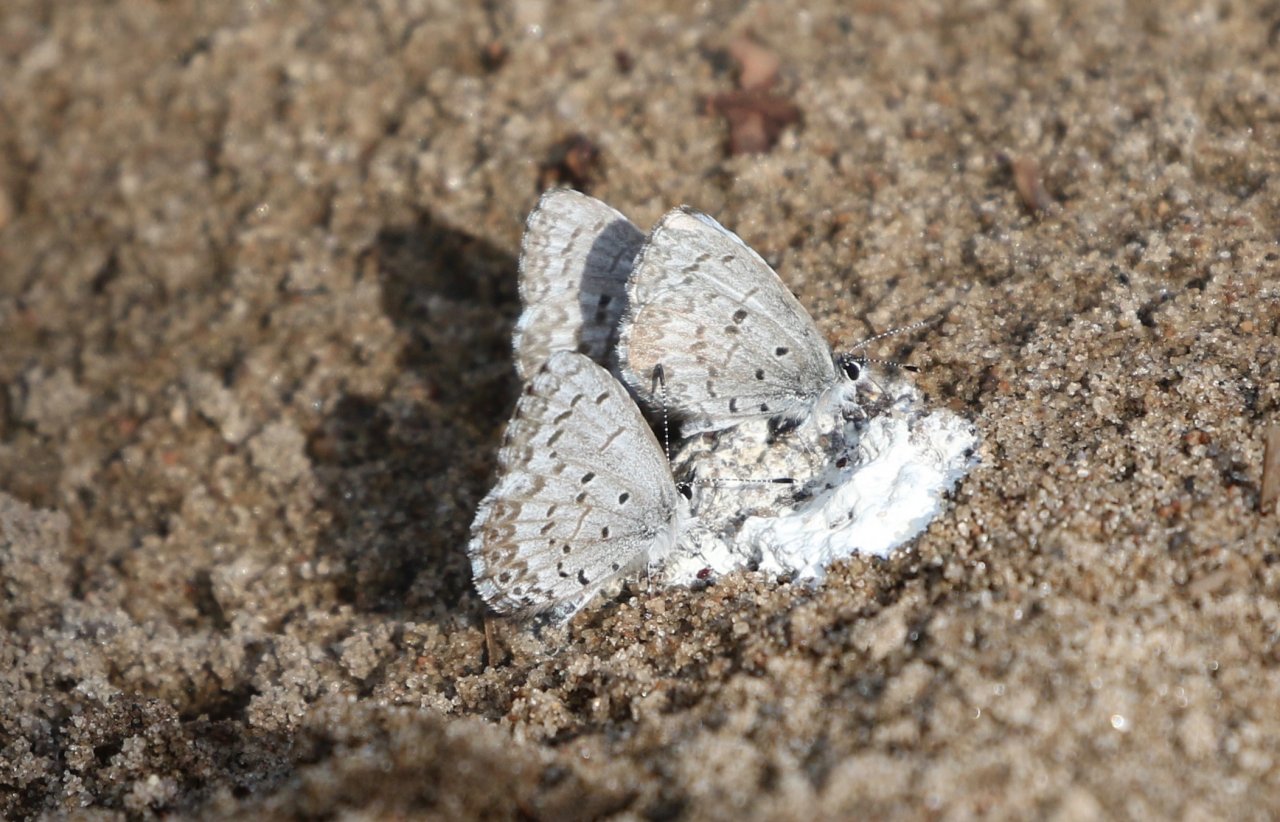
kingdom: Animalia
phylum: Arthropoda
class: Insecta
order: Lepidoptera
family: Lycaenidae
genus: Celastrina
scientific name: Celastrina lucia
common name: Northern Spring Azure
